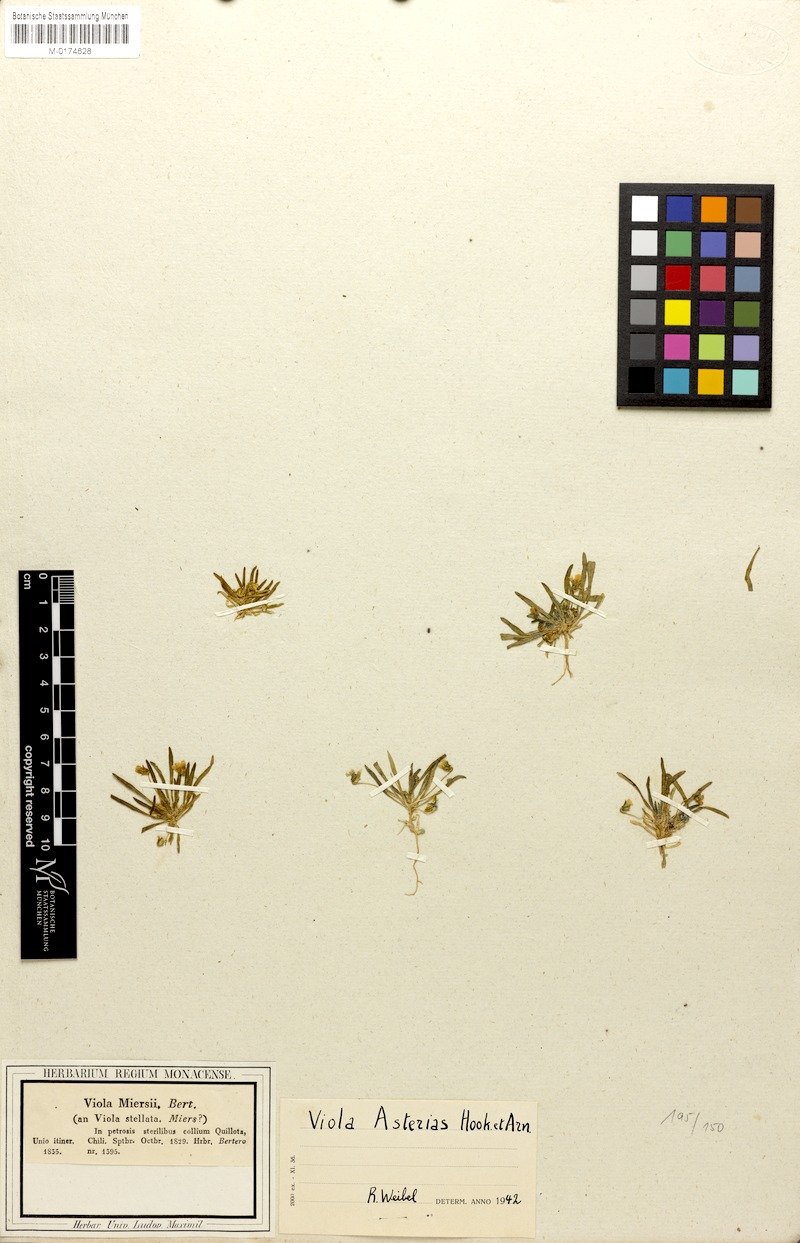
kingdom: Plantae
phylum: Tracheophyta
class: Magnoliopsida
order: Malpighiales
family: Violaceae
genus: Viola
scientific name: Viola pusilla
